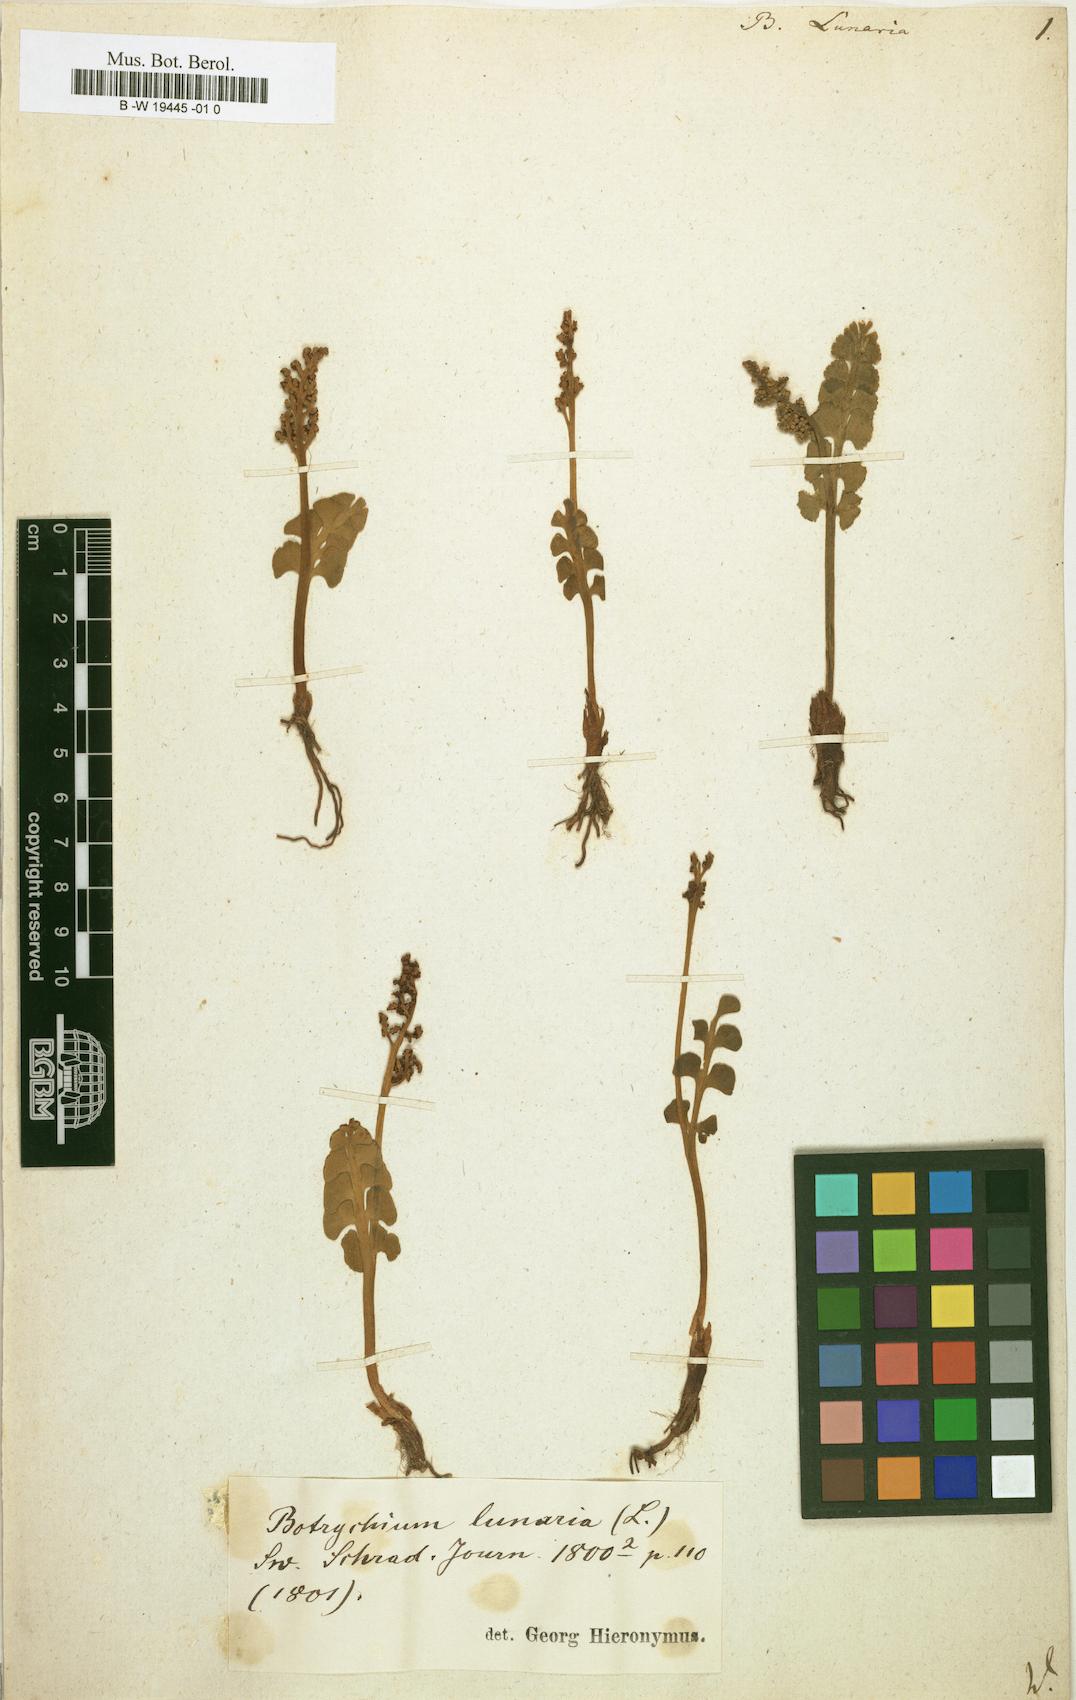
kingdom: Plantae
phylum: Tracheophyta
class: Polypodiopsida
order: Ophioglossales
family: Ophioglossaceae
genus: Botrychium
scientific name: Botrychium lunaria
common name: Moonwort
